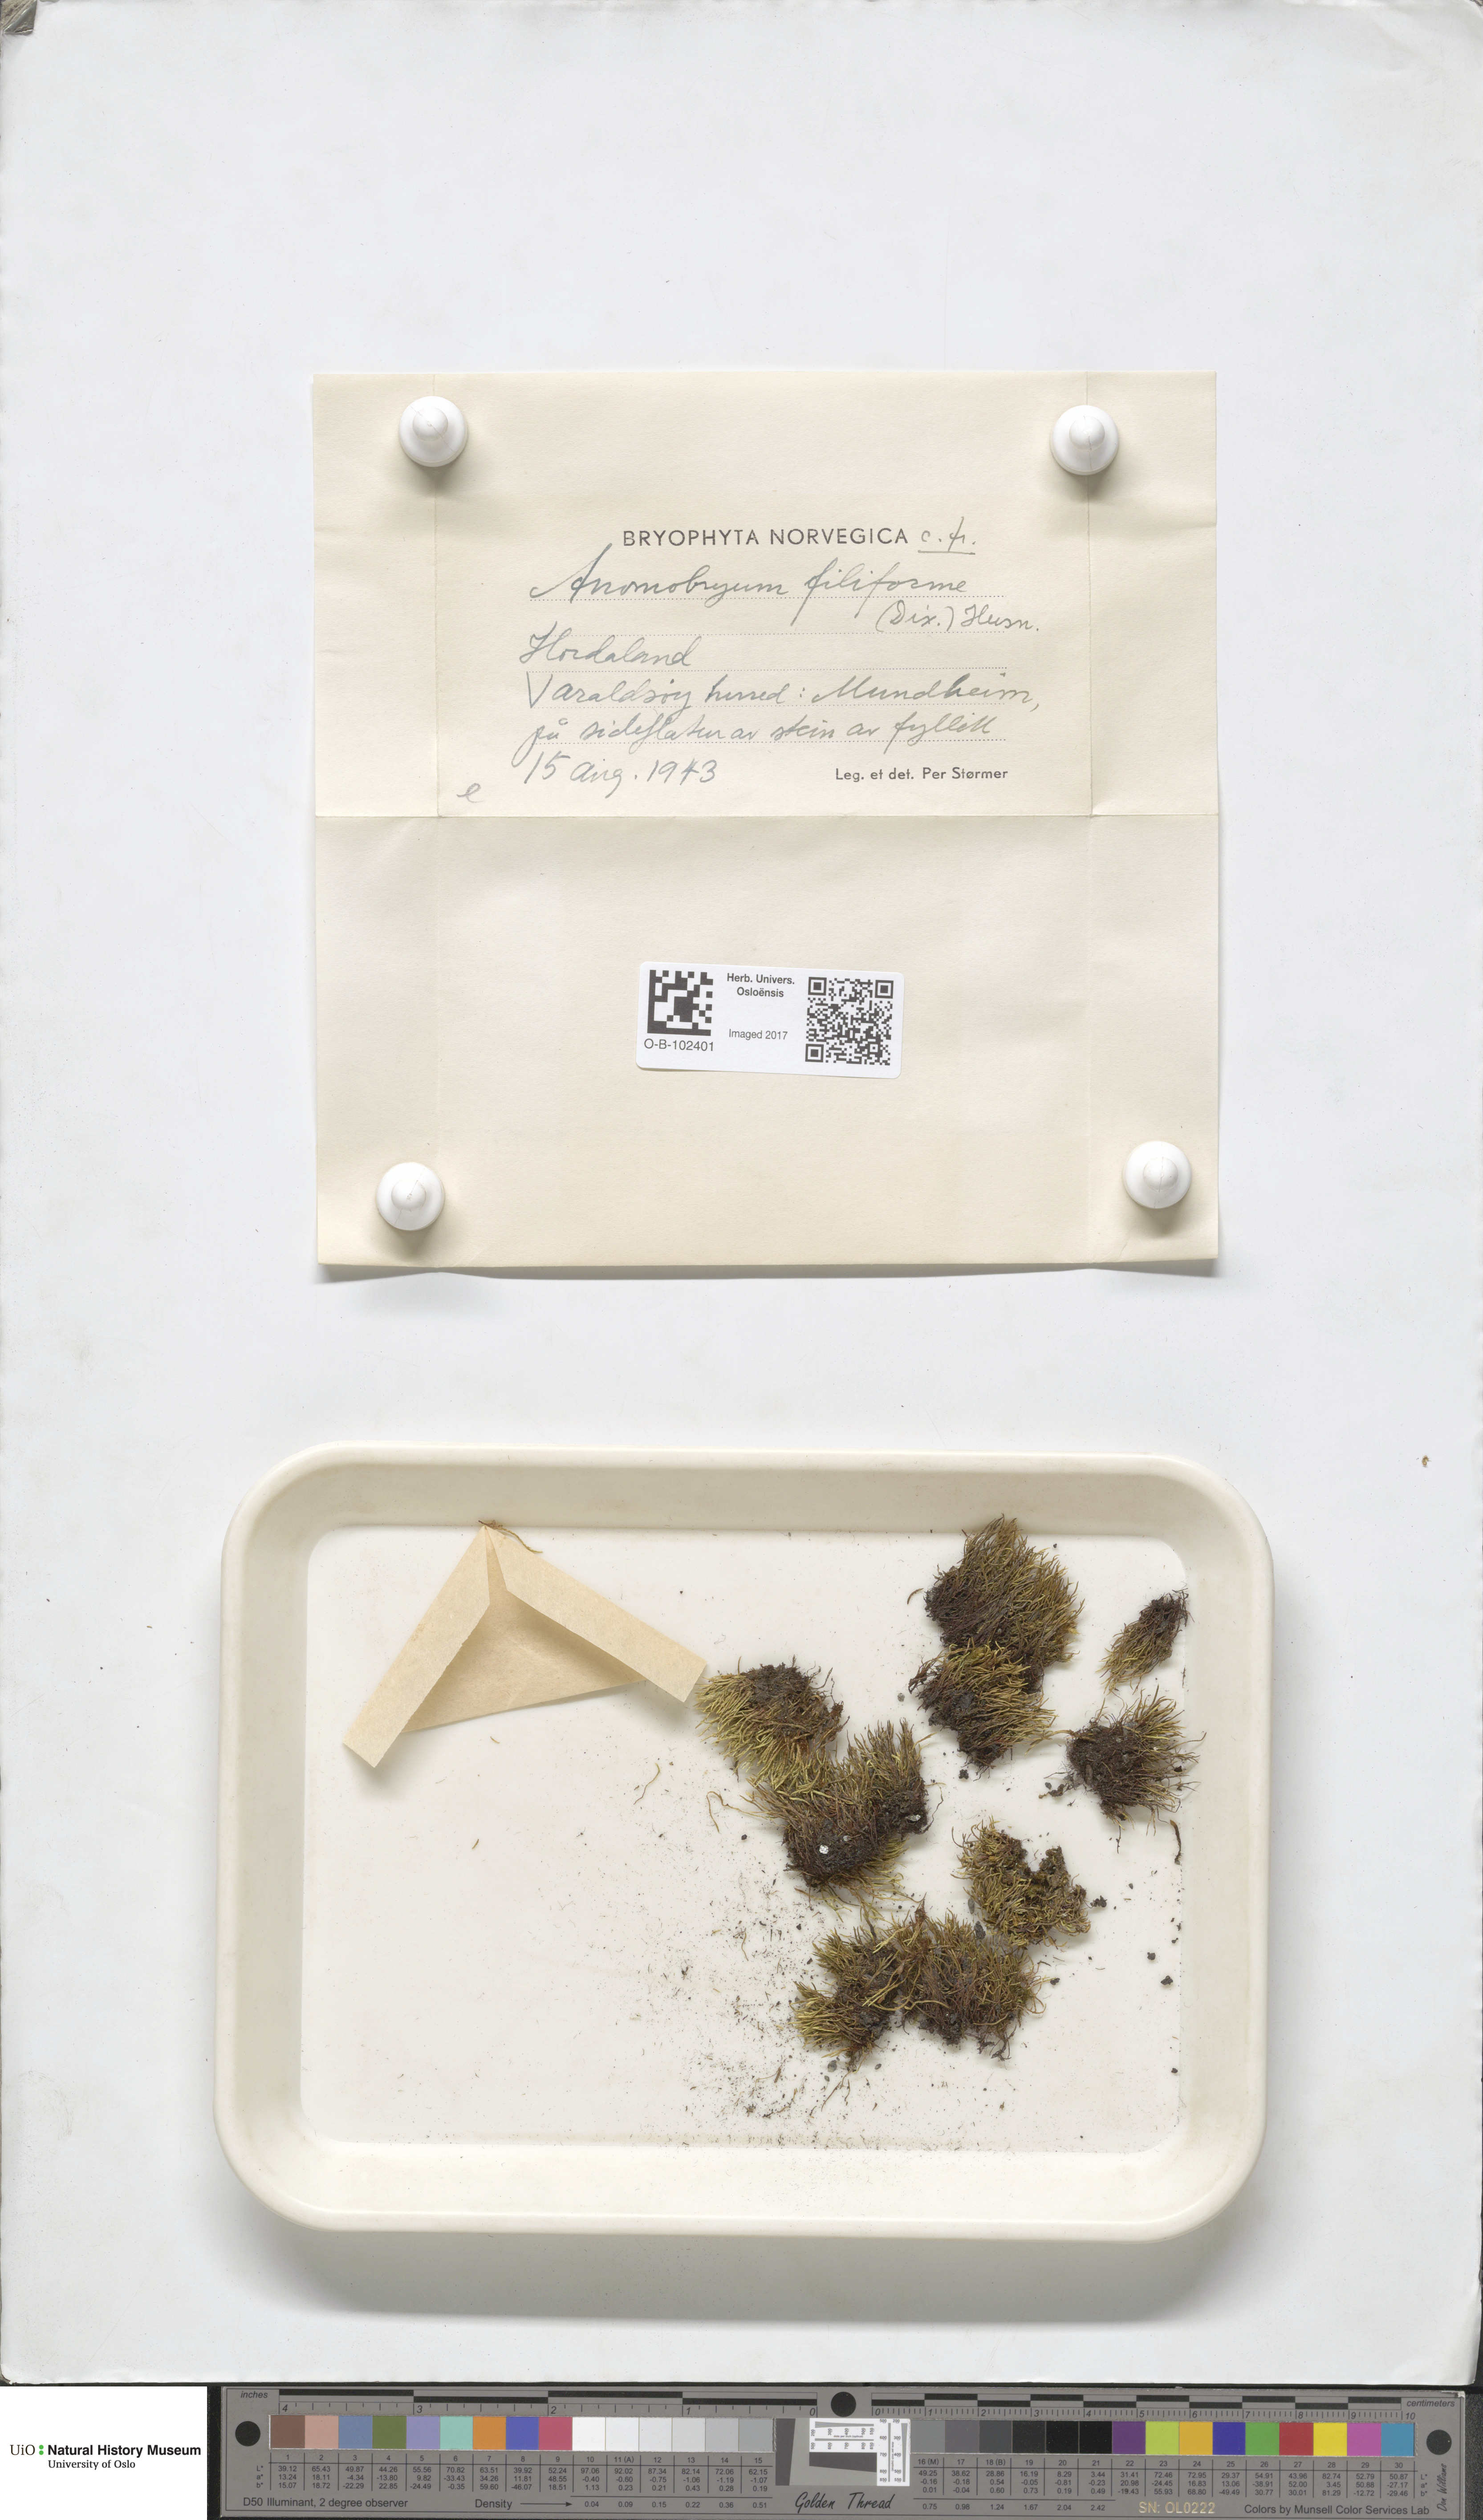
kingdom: Plantae
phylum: Bryophyta
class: Bryopsida
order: Bryales
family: Bryaceae
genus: Anomobryum
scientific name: Anomobryum julaceum
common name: Slender silver moss
